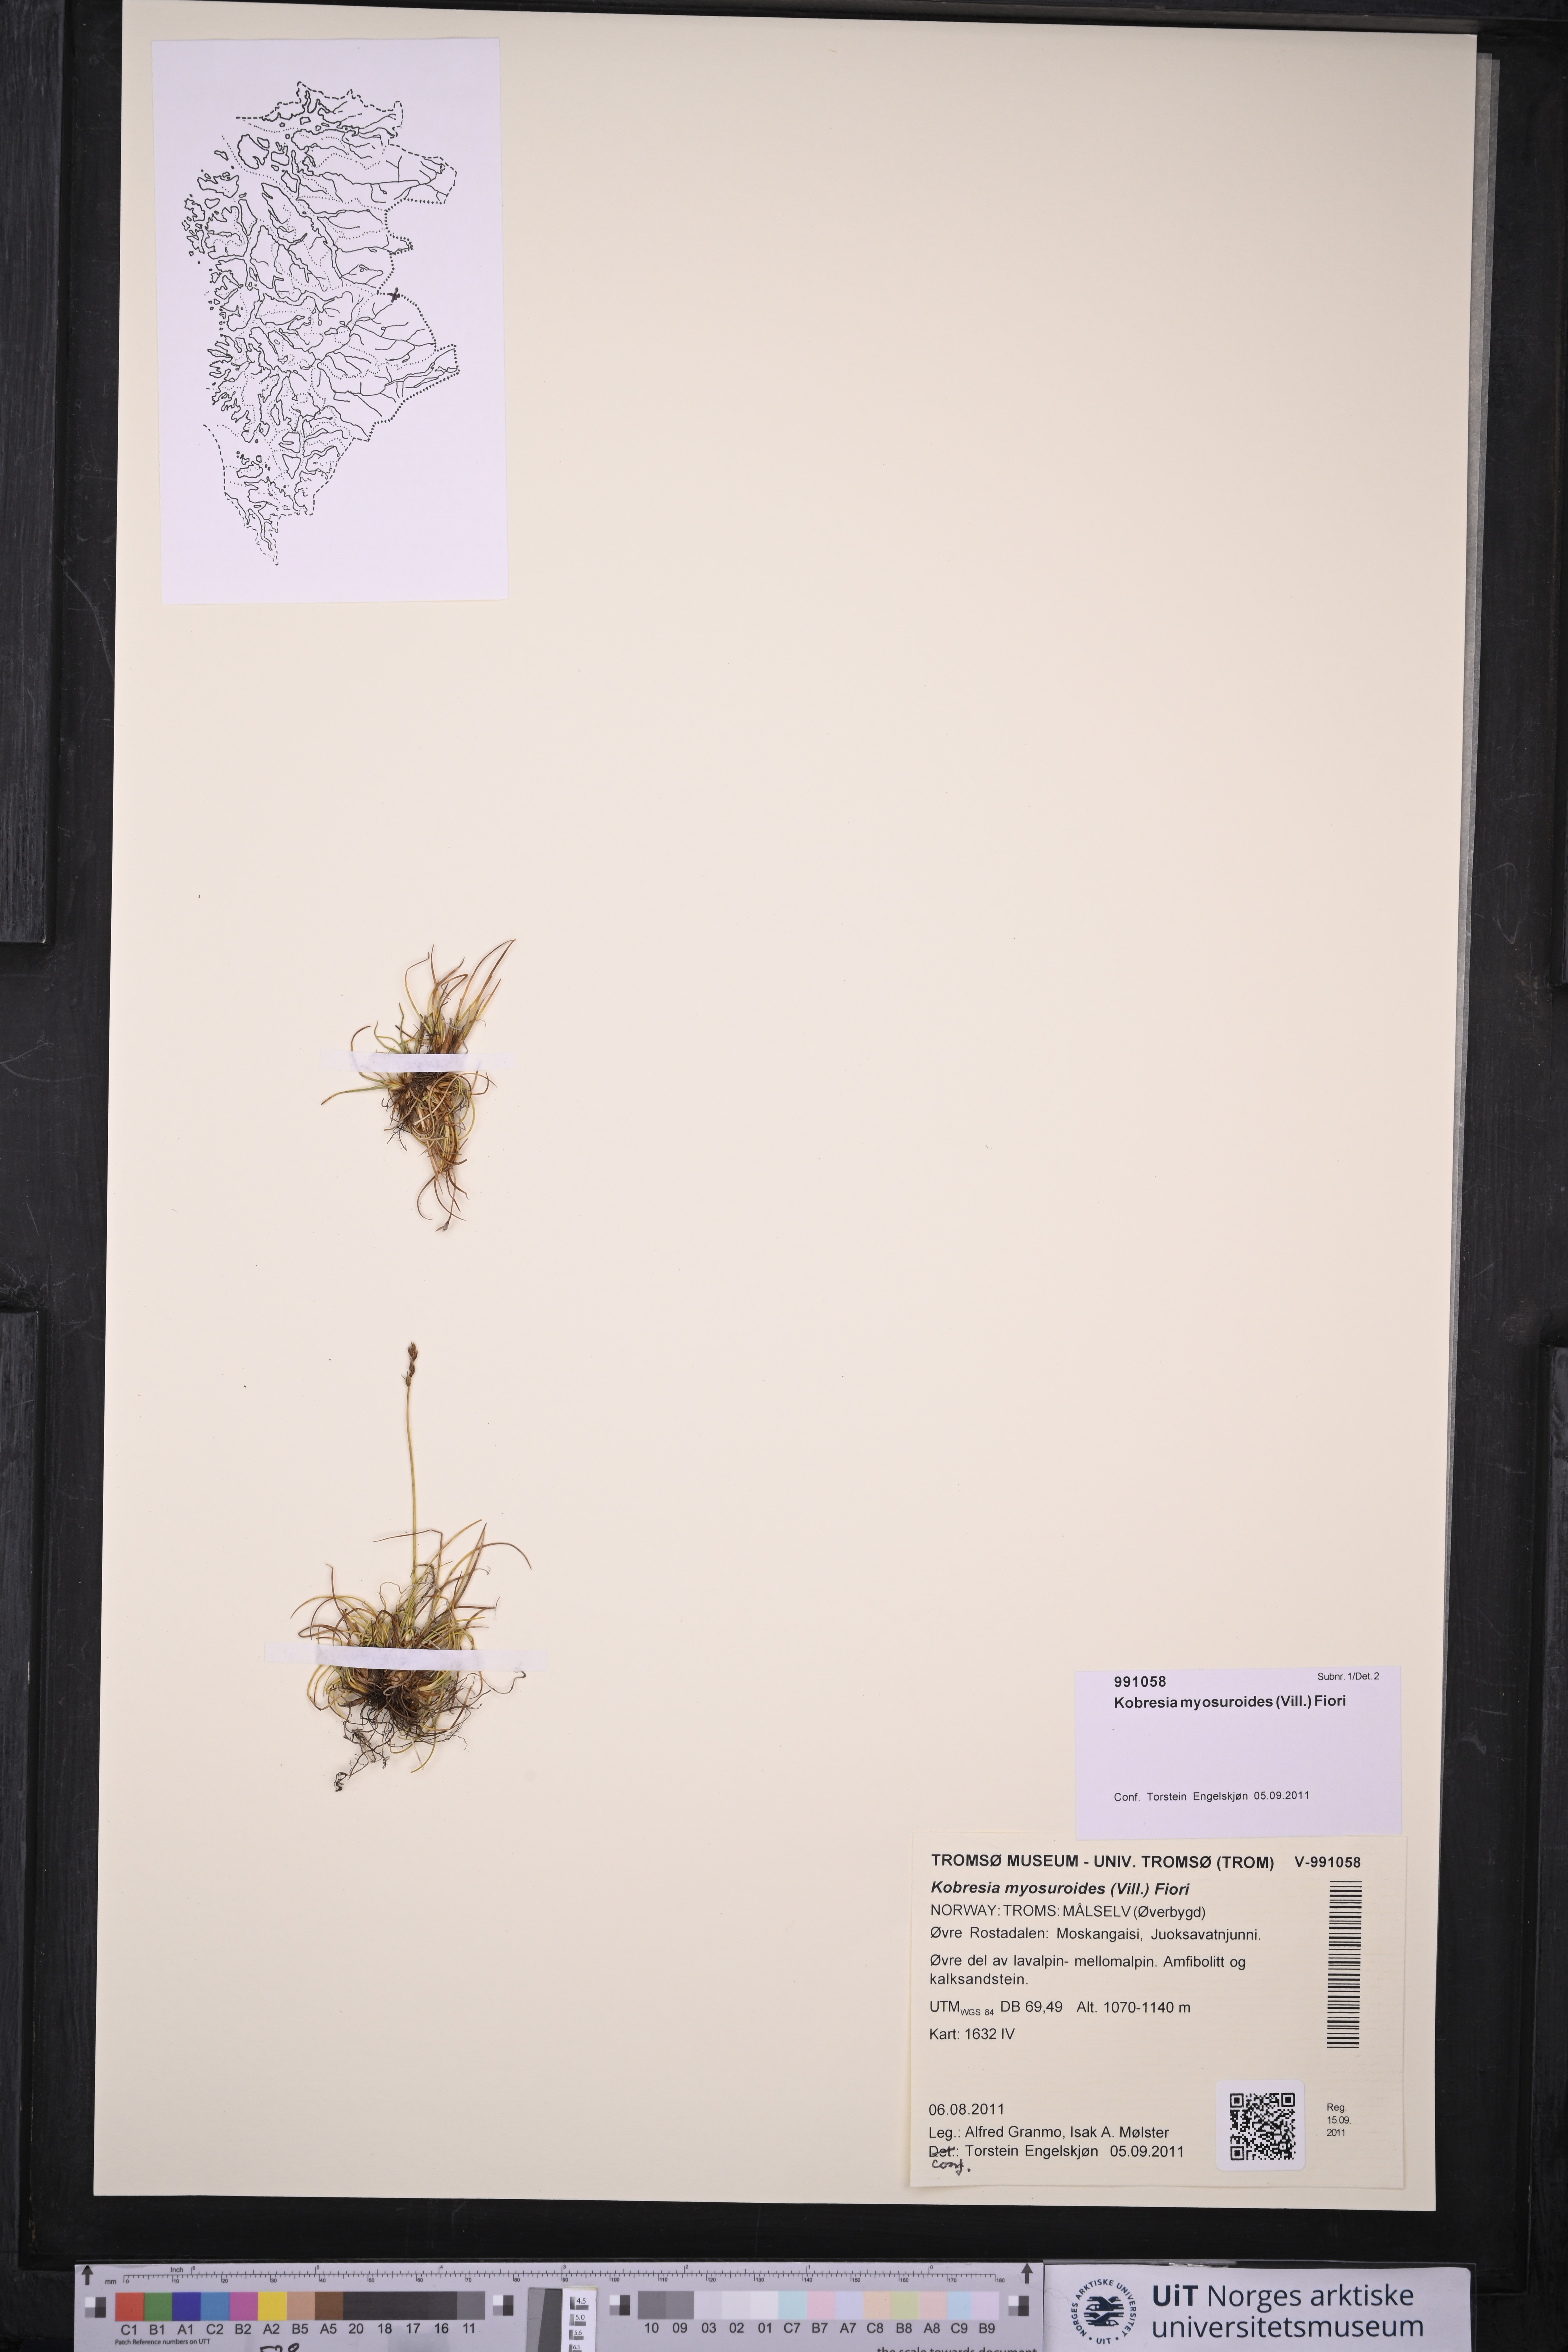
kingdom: Plantae
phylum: Tracheophyta
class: Liliopsida
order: Poales
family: Cyperaceae
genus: Carex
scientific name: Carex myosuroides
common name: Bellard's bog sedge
